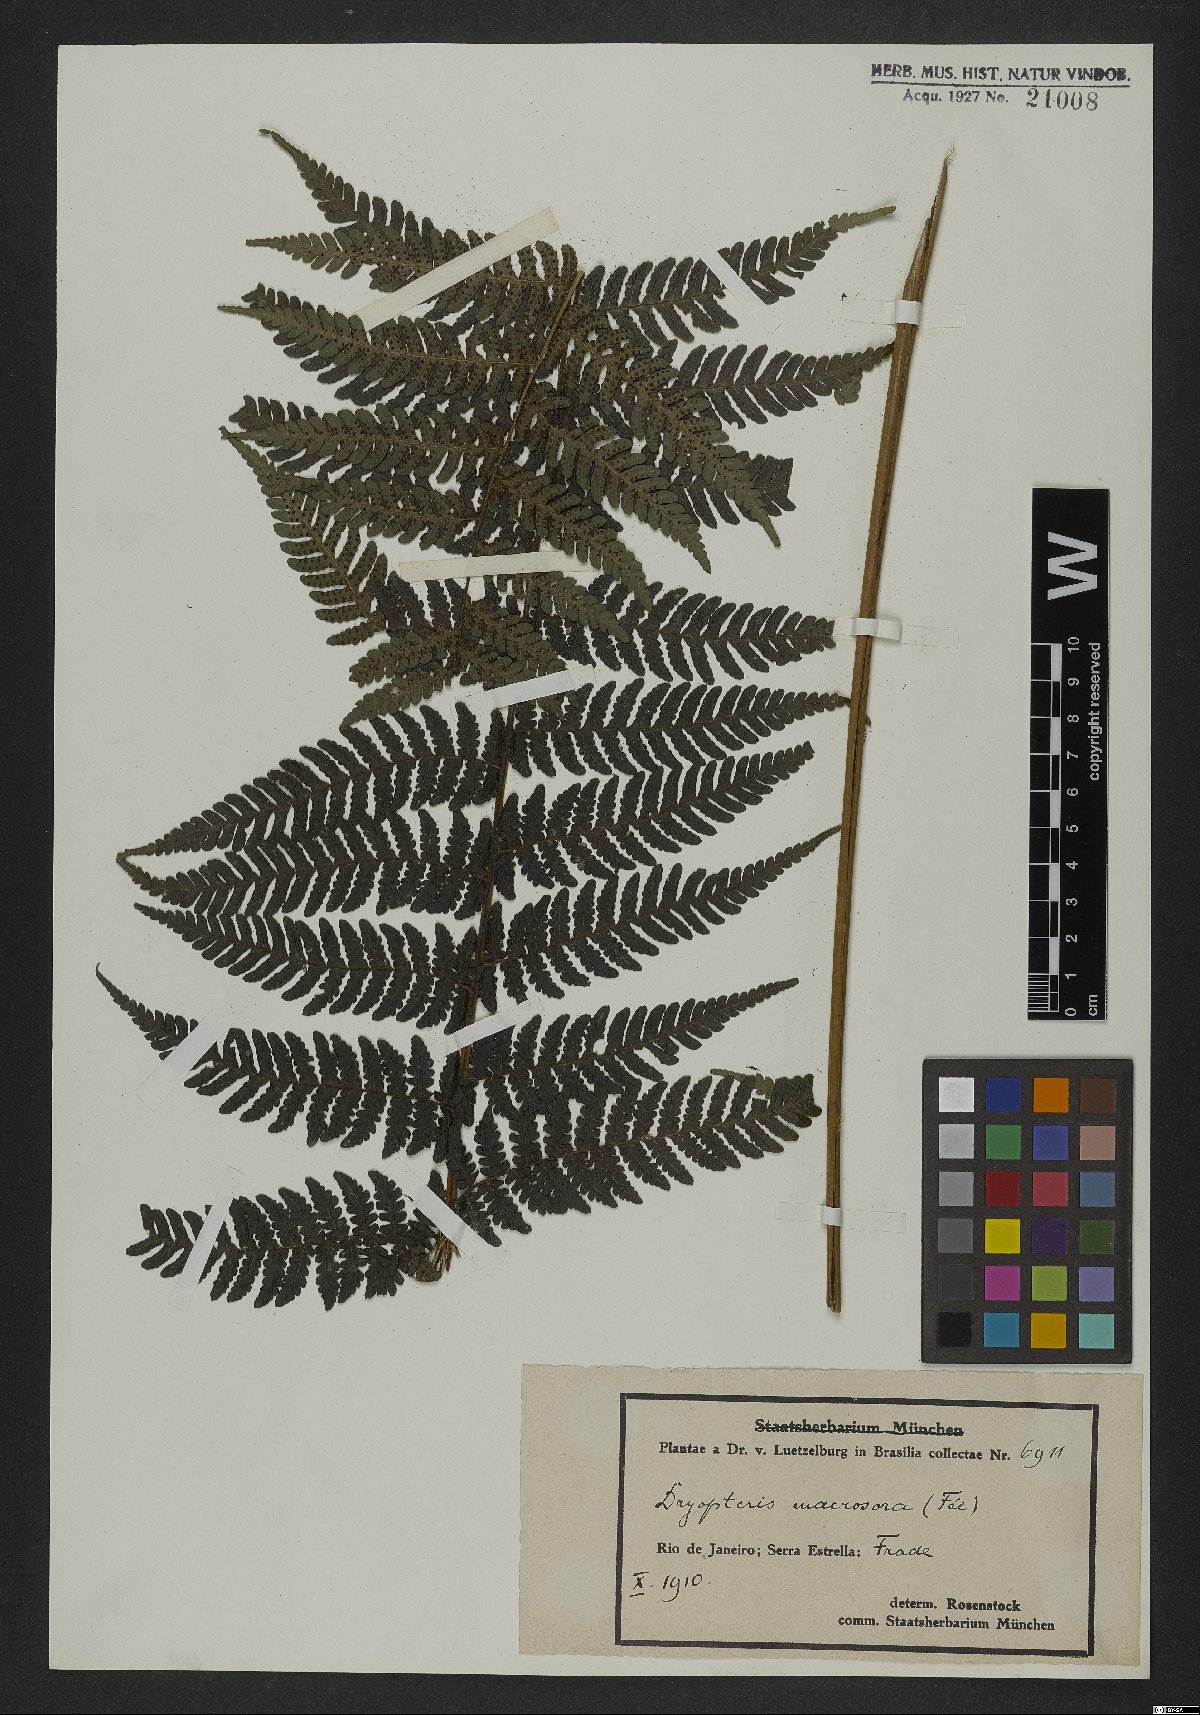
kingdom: Plantae
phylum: Tracheophyta
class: Polypodiopsida
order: Polypodiales
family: Dryopteridaceae
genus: Megalastrum
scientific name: Megalastrum inaequale
